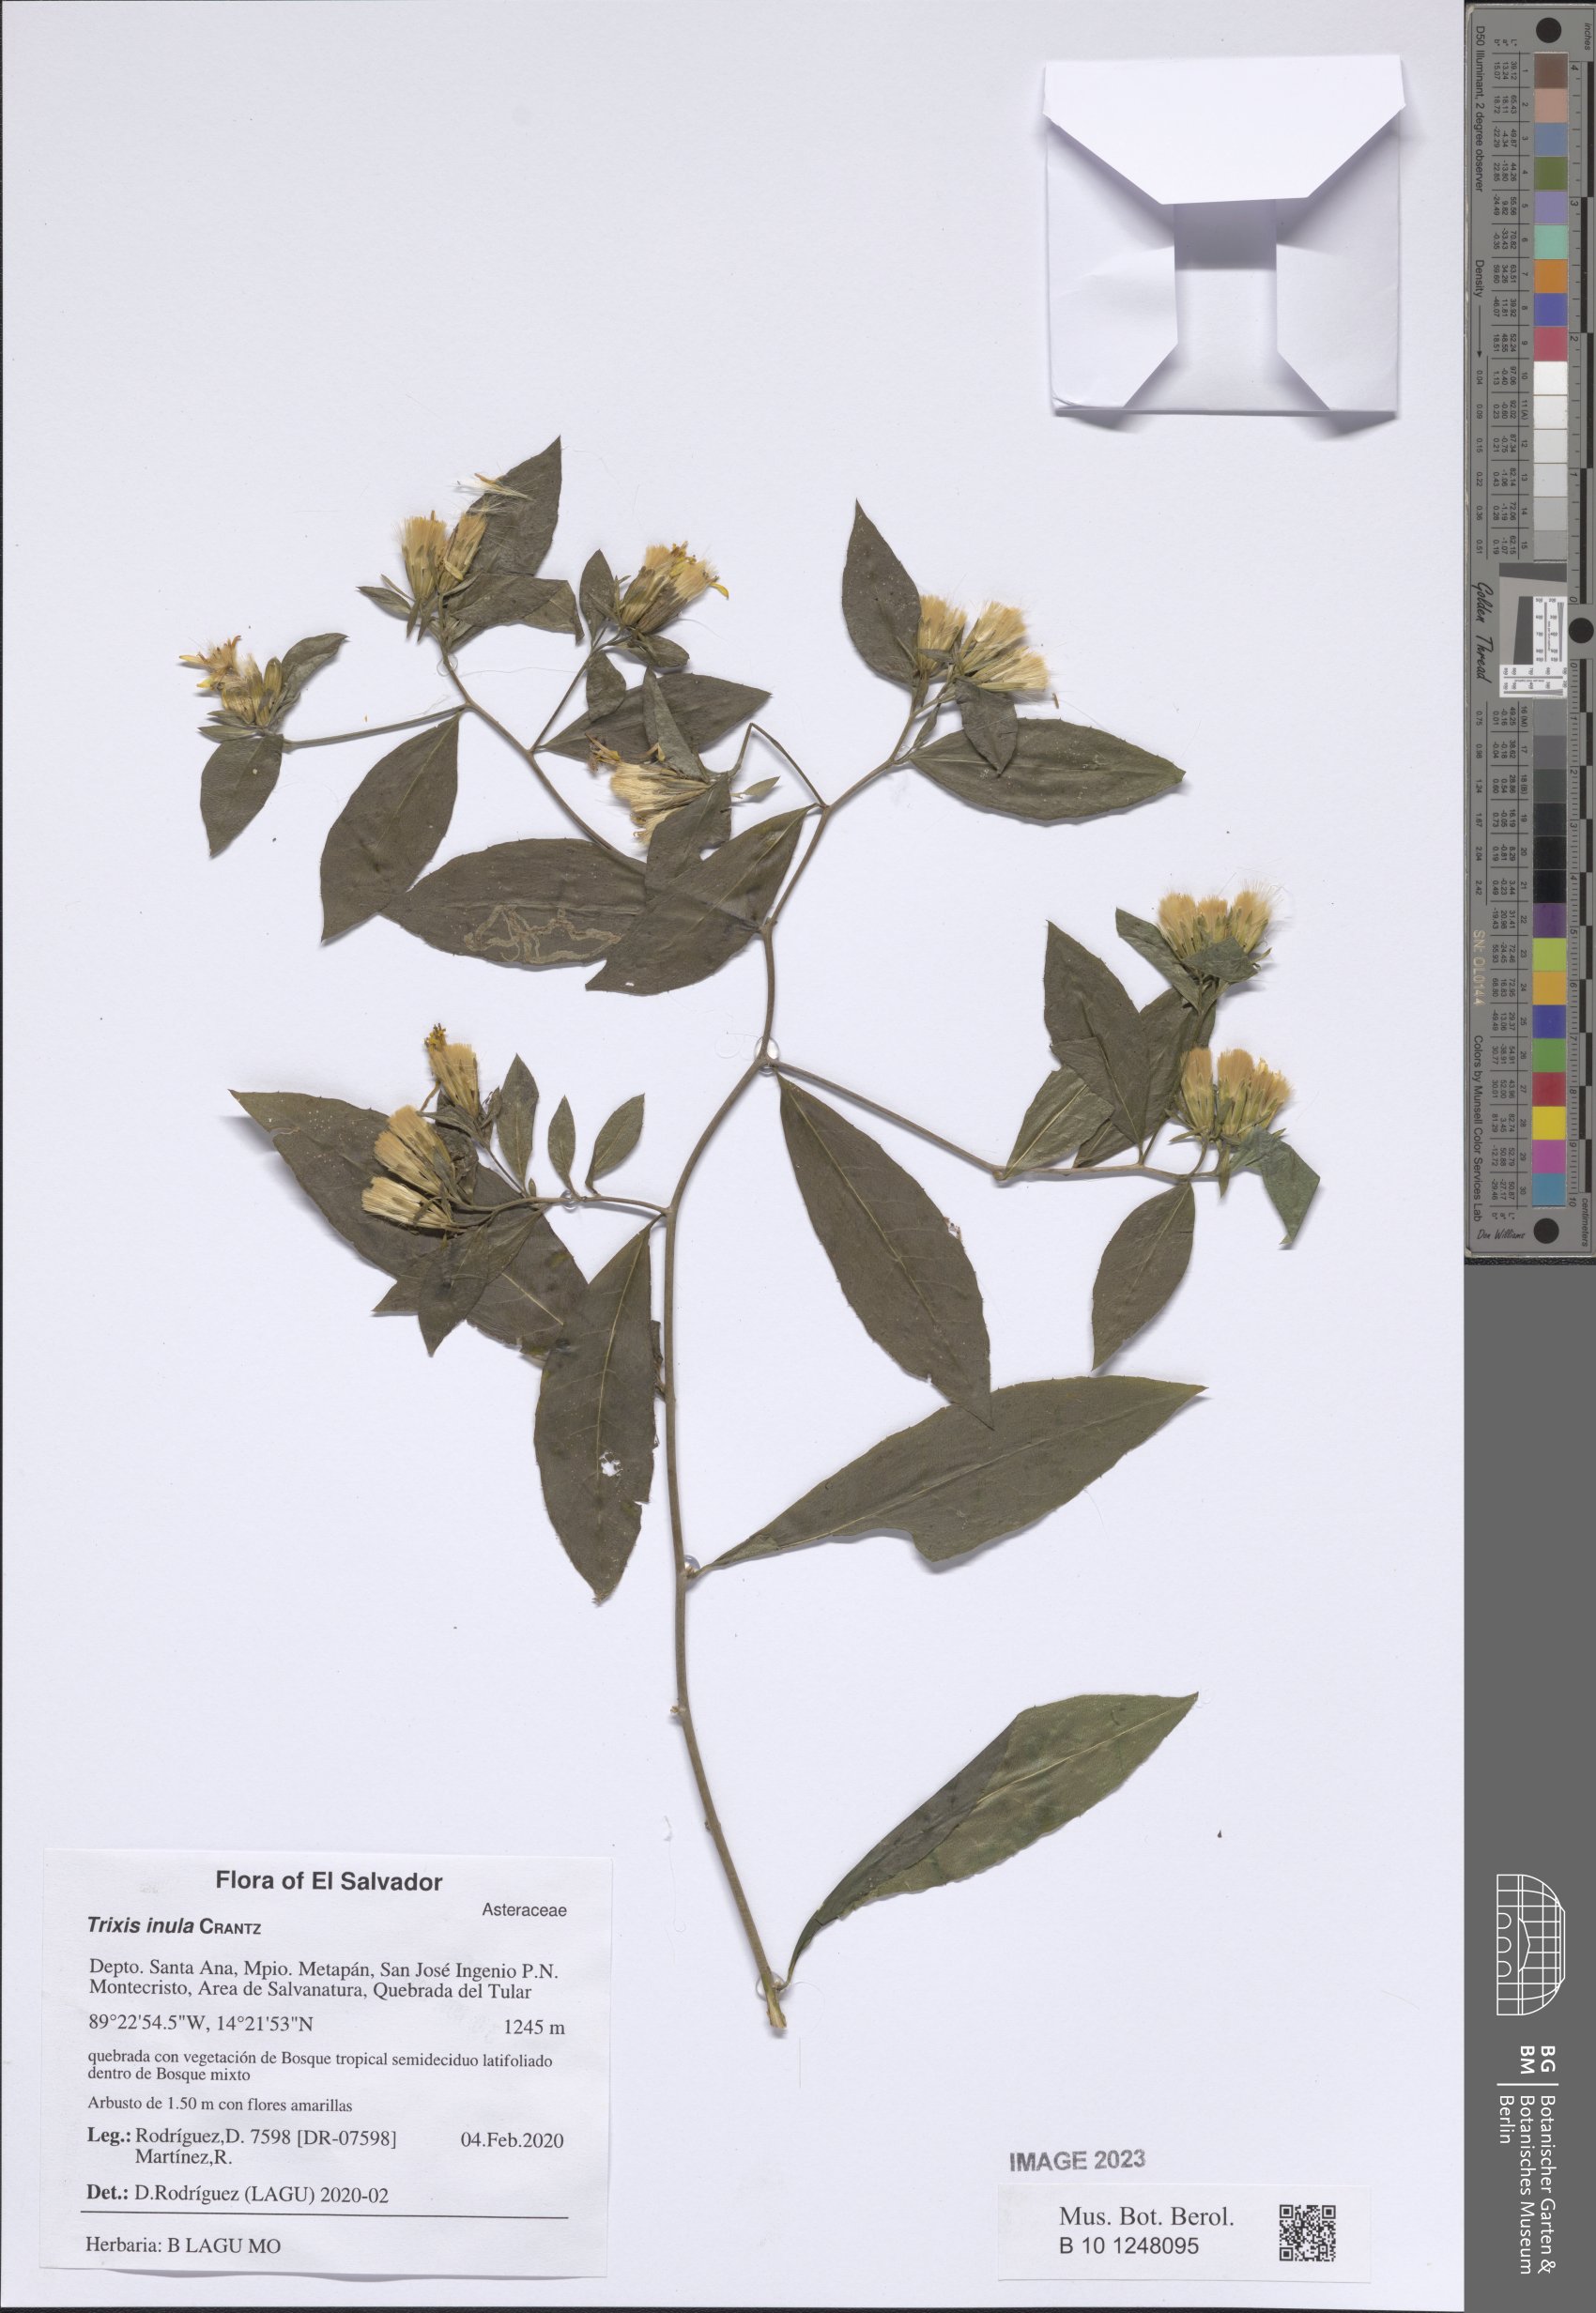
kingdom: Plantae
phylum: Tracheophyta
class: Magnoliopsida
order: Asterales
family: Asteraceae
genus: Trixis
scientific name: Trixis inula
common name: Tropical threefold
